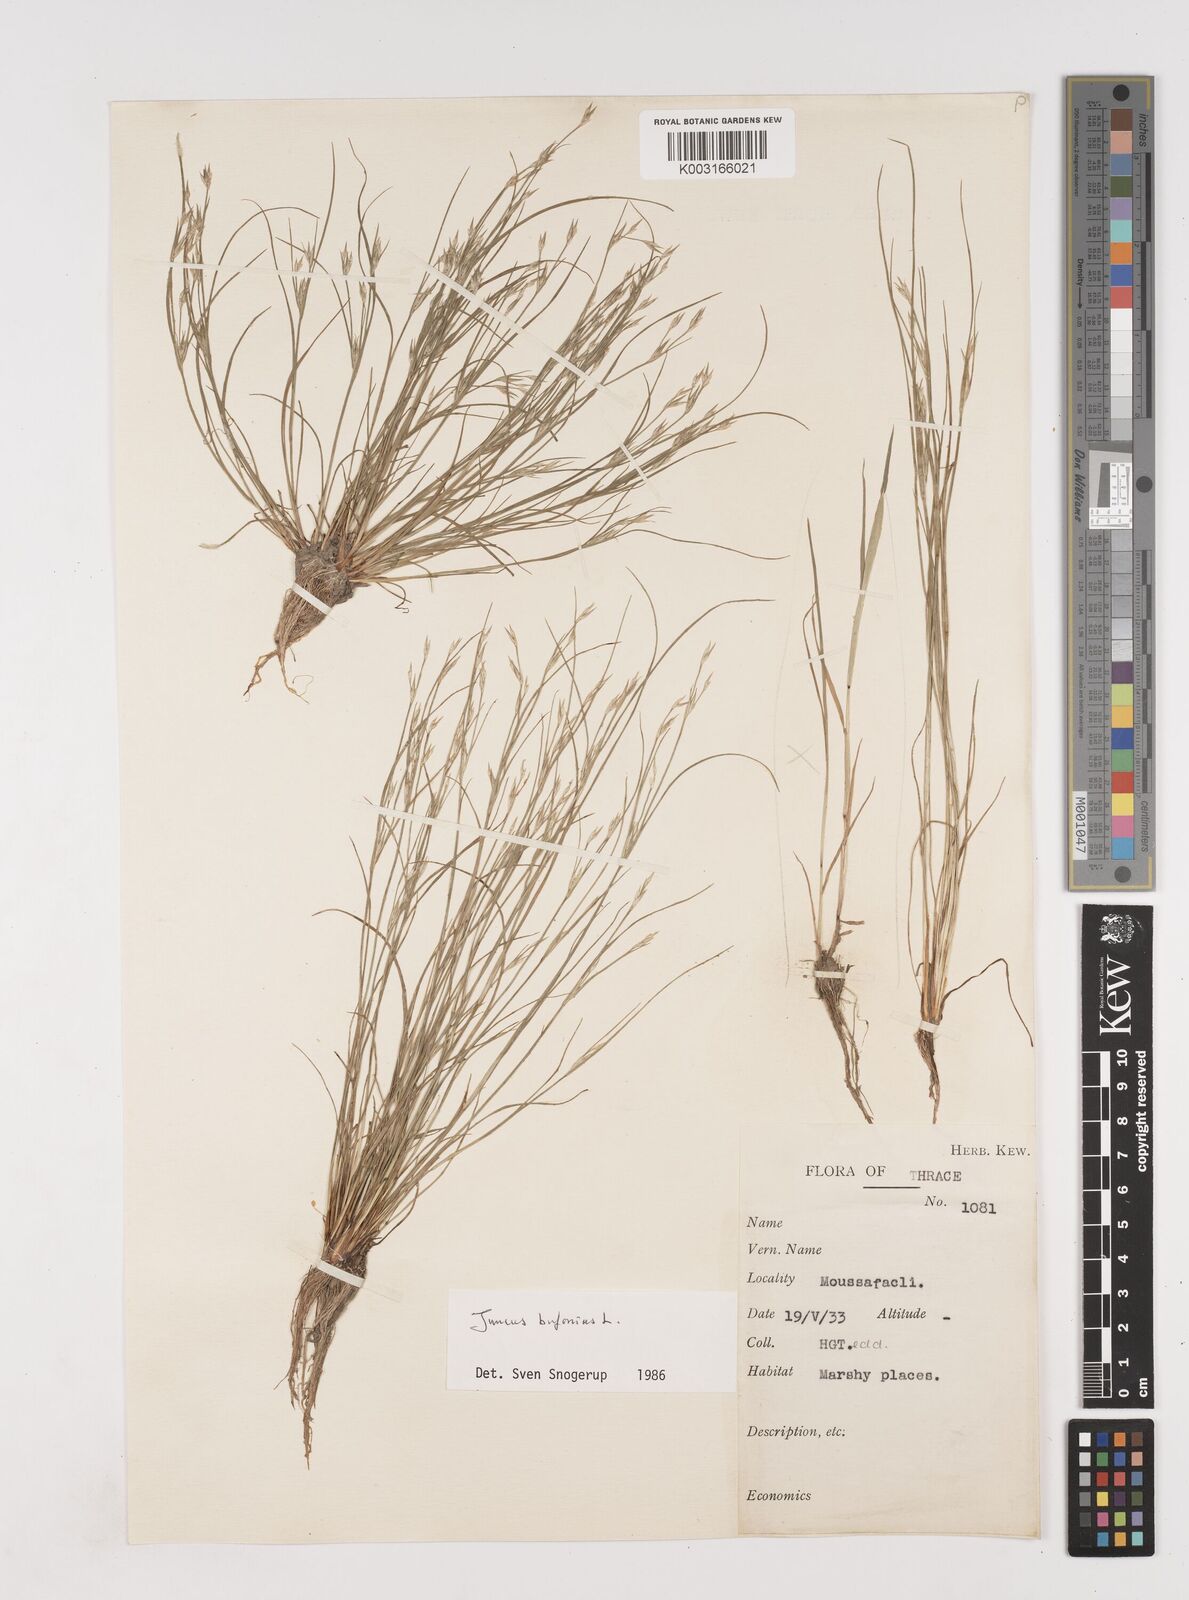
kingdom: Plantae
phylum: Tracheophyta
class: Liliopsida
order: Poales
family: Juncaceae
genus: Juncus
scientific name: Juncus bufonius
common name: Toad rush
